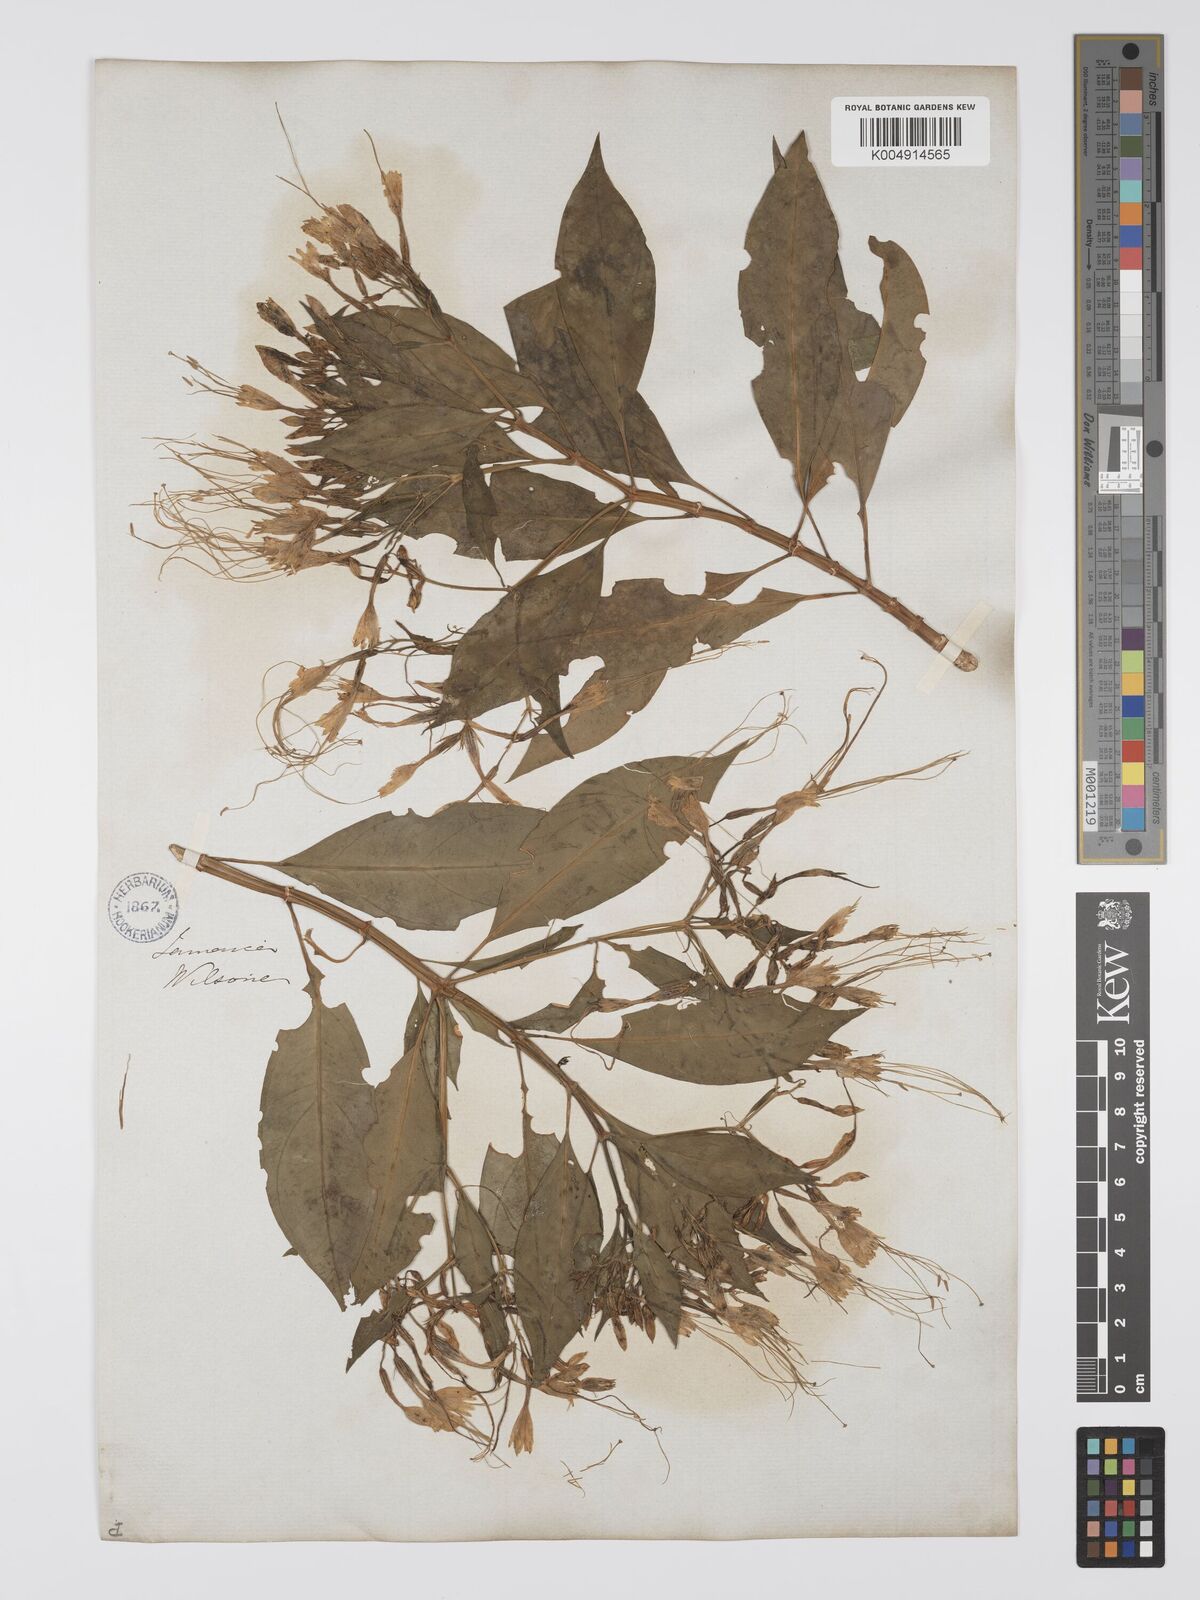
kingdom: Plantae
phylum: Tracheophyta
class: Magnoliopsida
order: Gentianales
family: Gentianaceae
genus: Lisianthus
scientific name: Lisianthus exsertus
